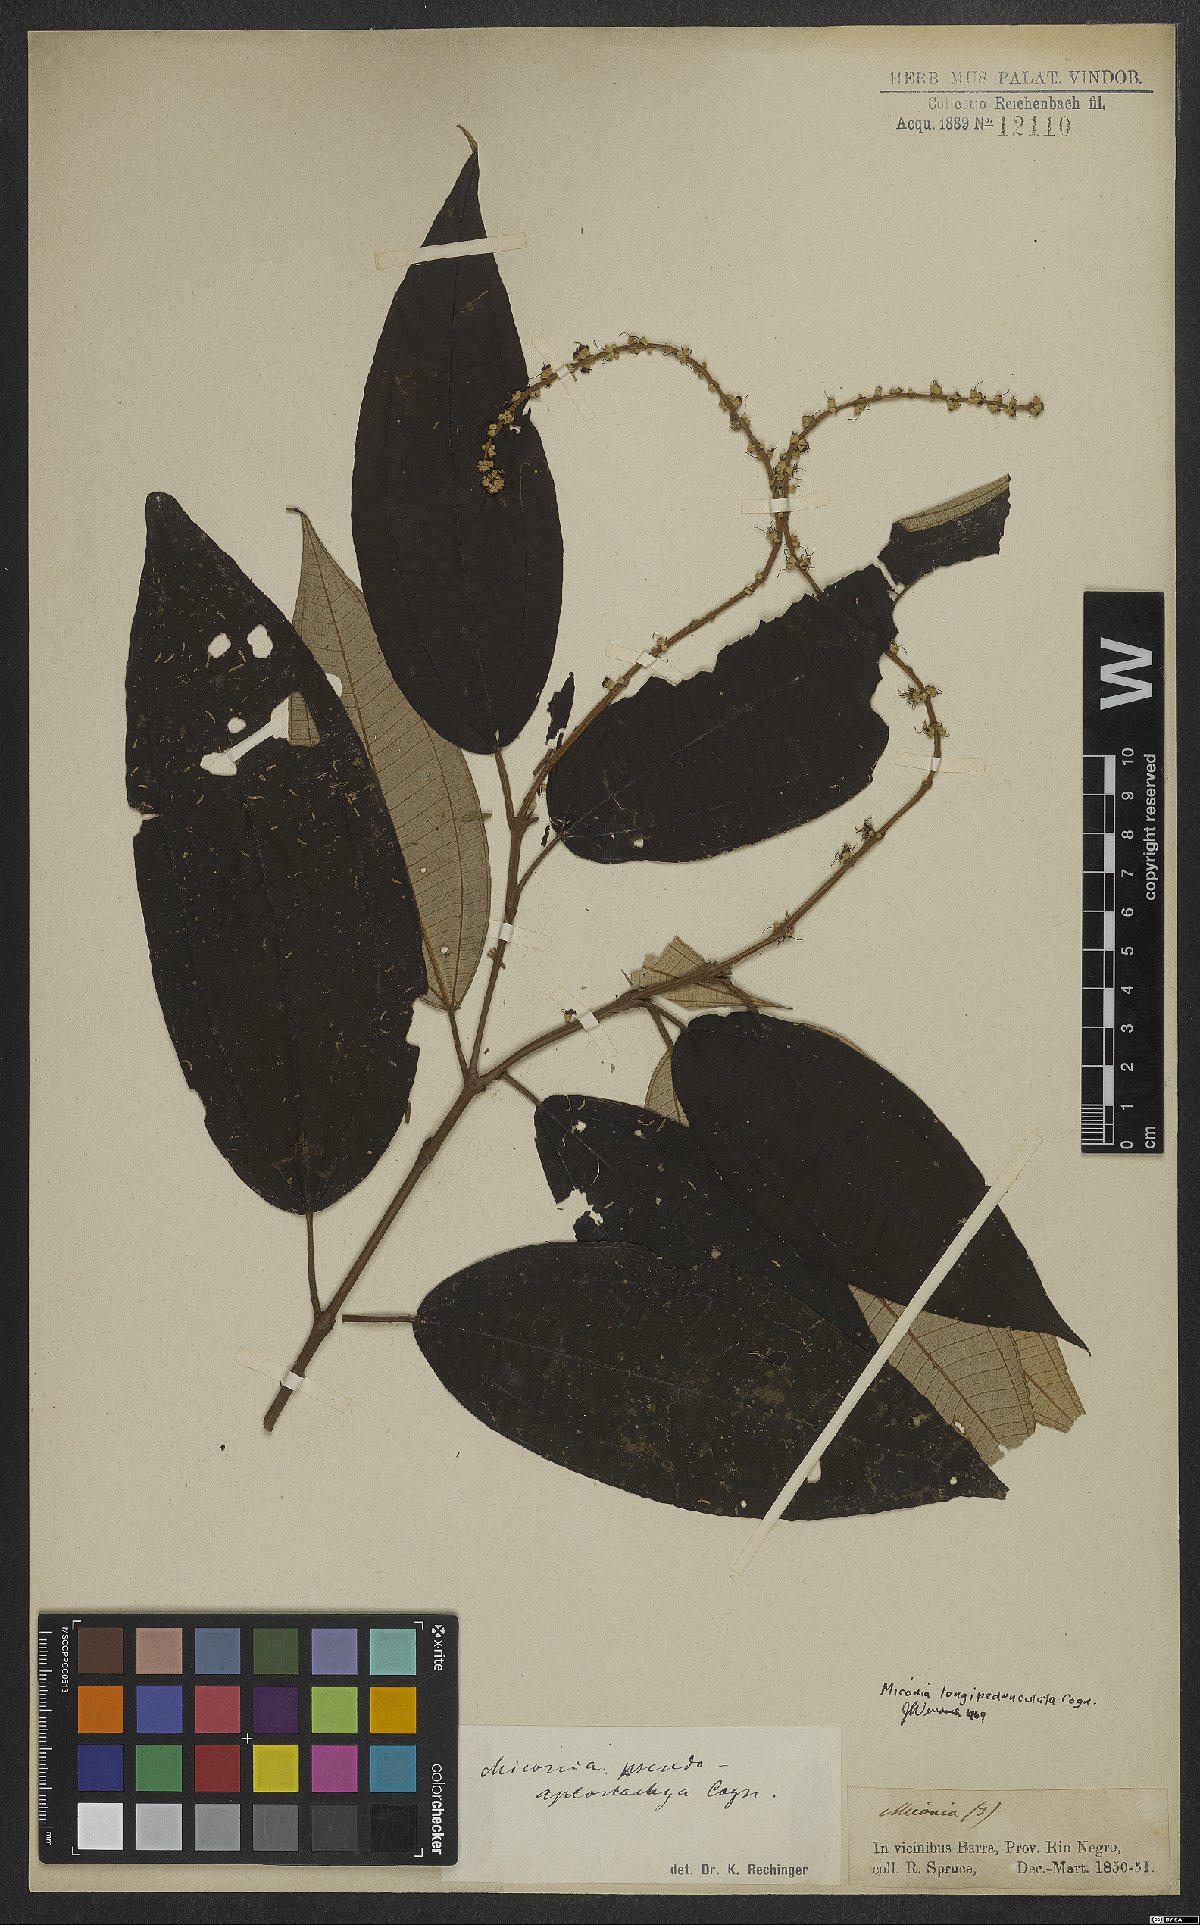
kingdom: Plantae
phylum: Tracheophyta
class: Magnoliopsida
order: Myrtales
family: Melastomataceae
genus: Miconia
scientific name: Miconia longispicata
